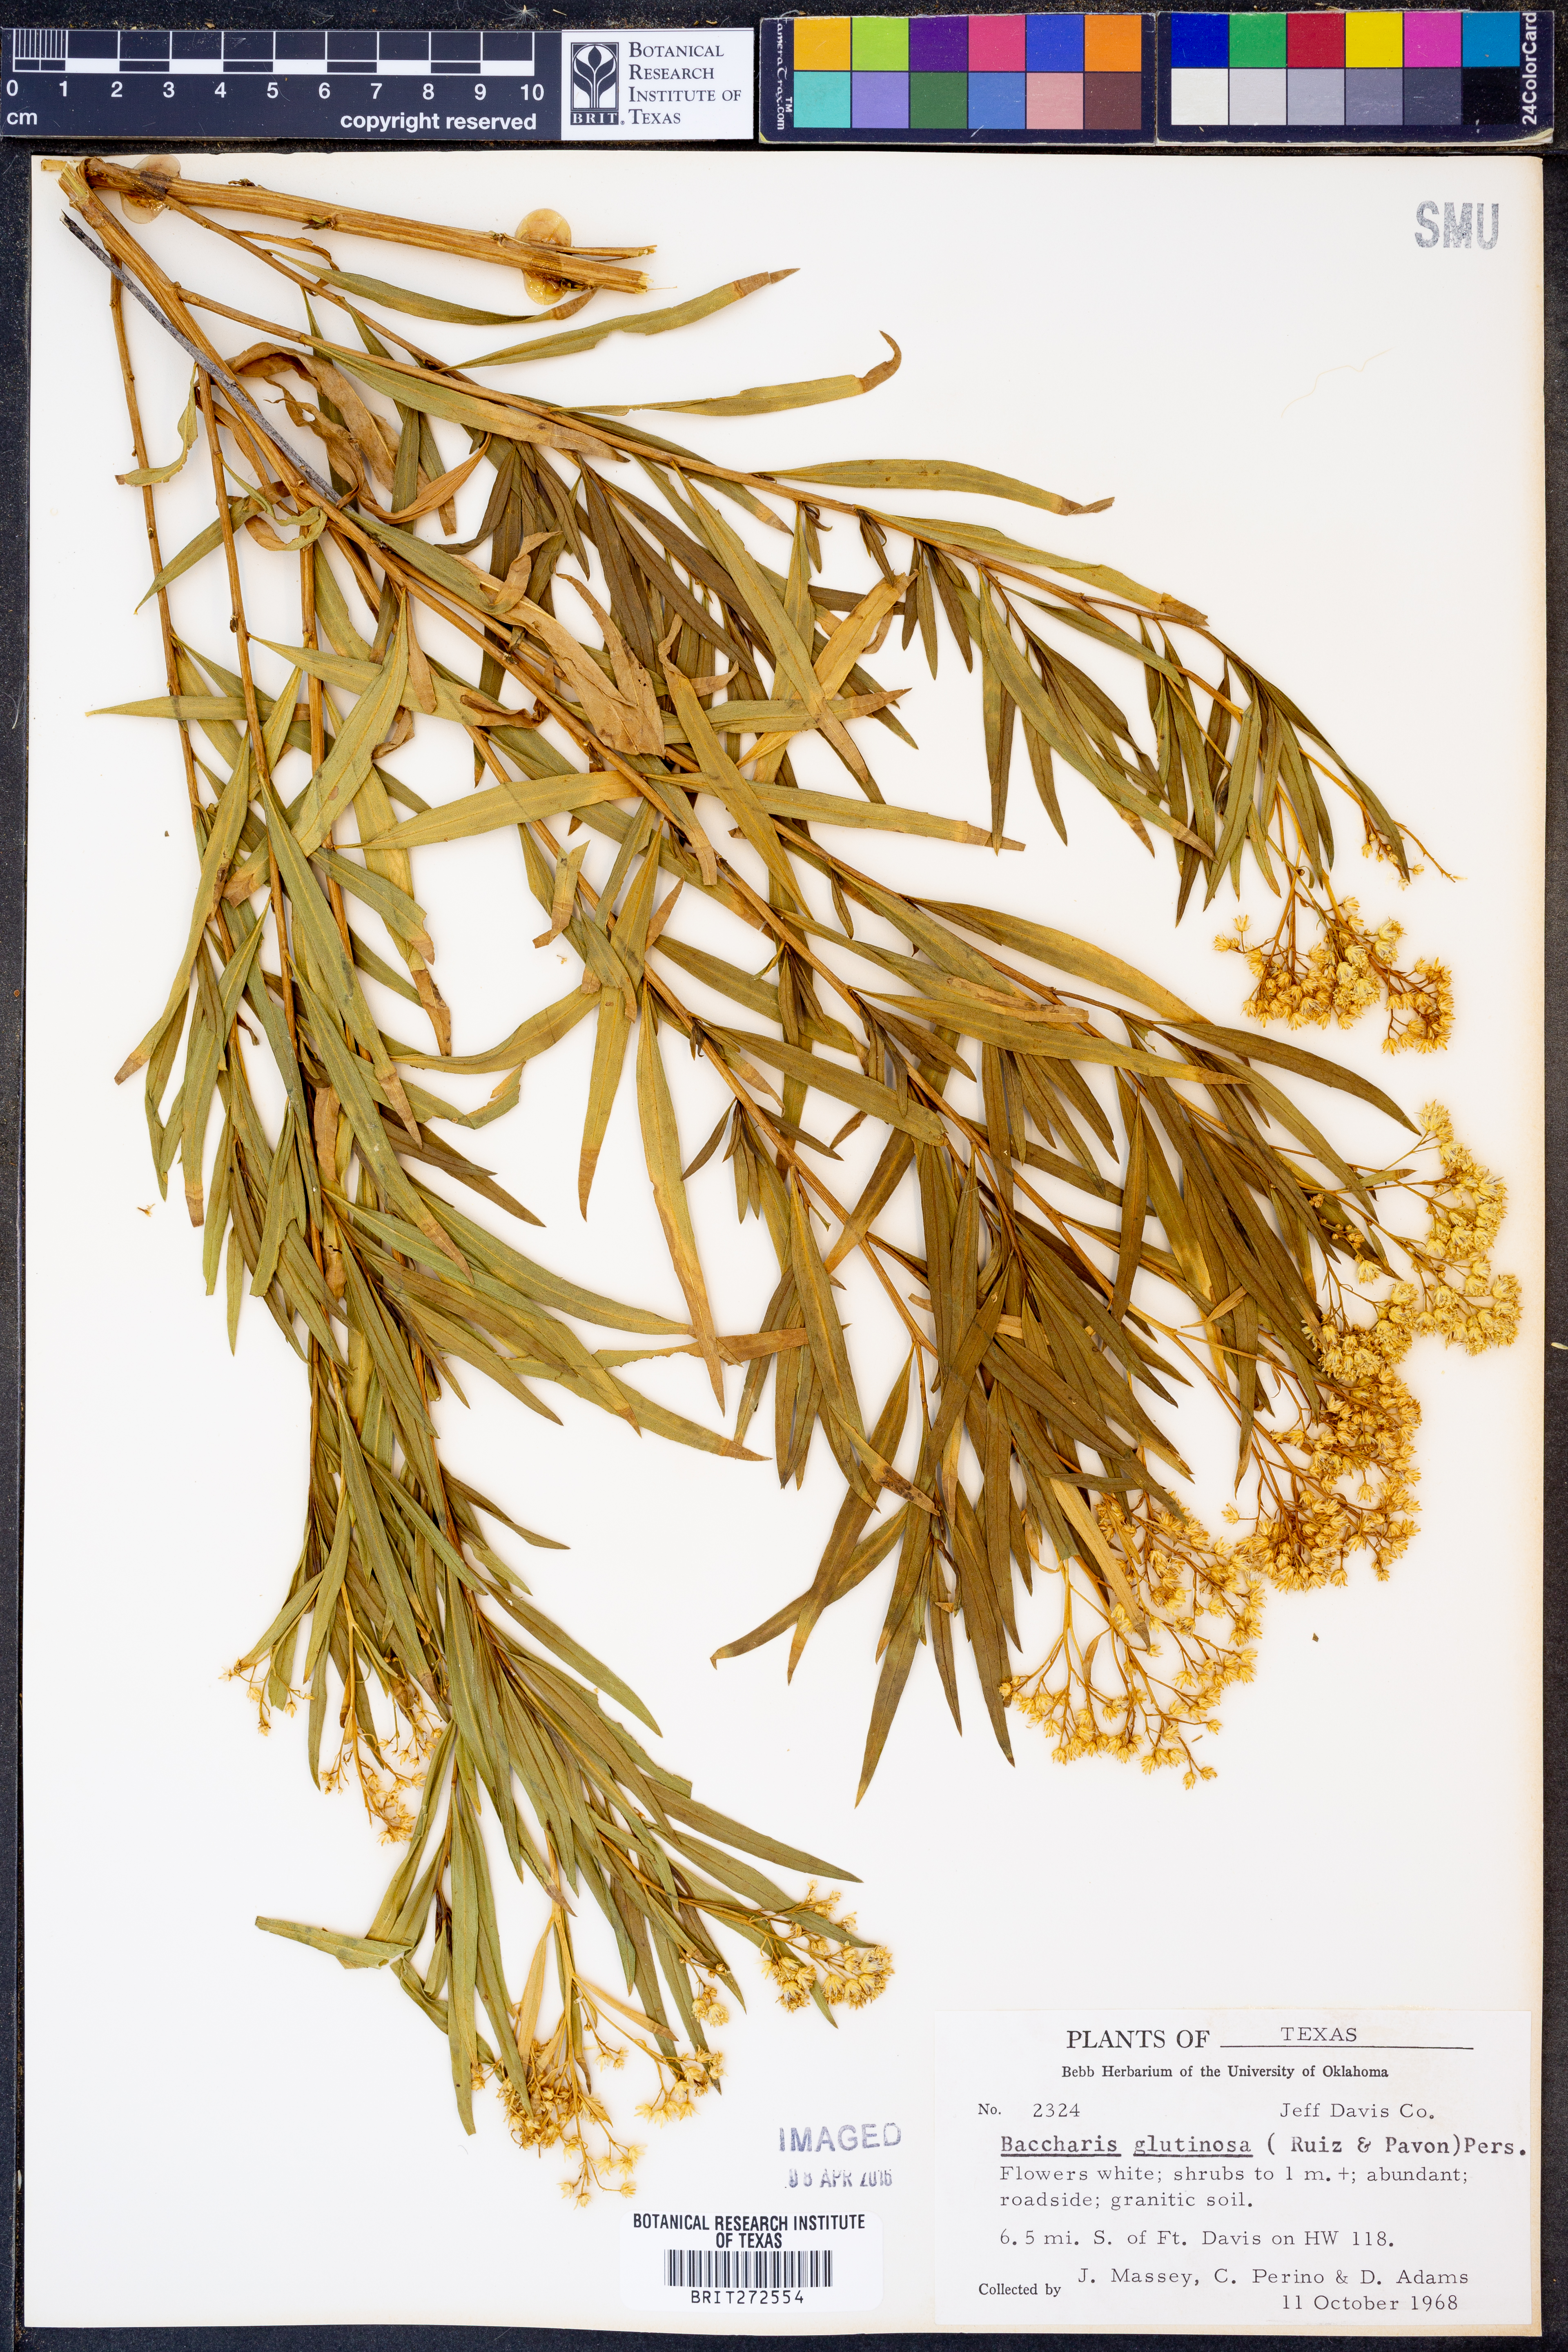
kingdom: Plantae
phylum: Tracheophyta
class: Magnoliopsida
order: Asterales
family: Asteraceae
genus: Baccharis
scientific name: Baccharis glutinosa
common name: Saltmarsh baccharis
